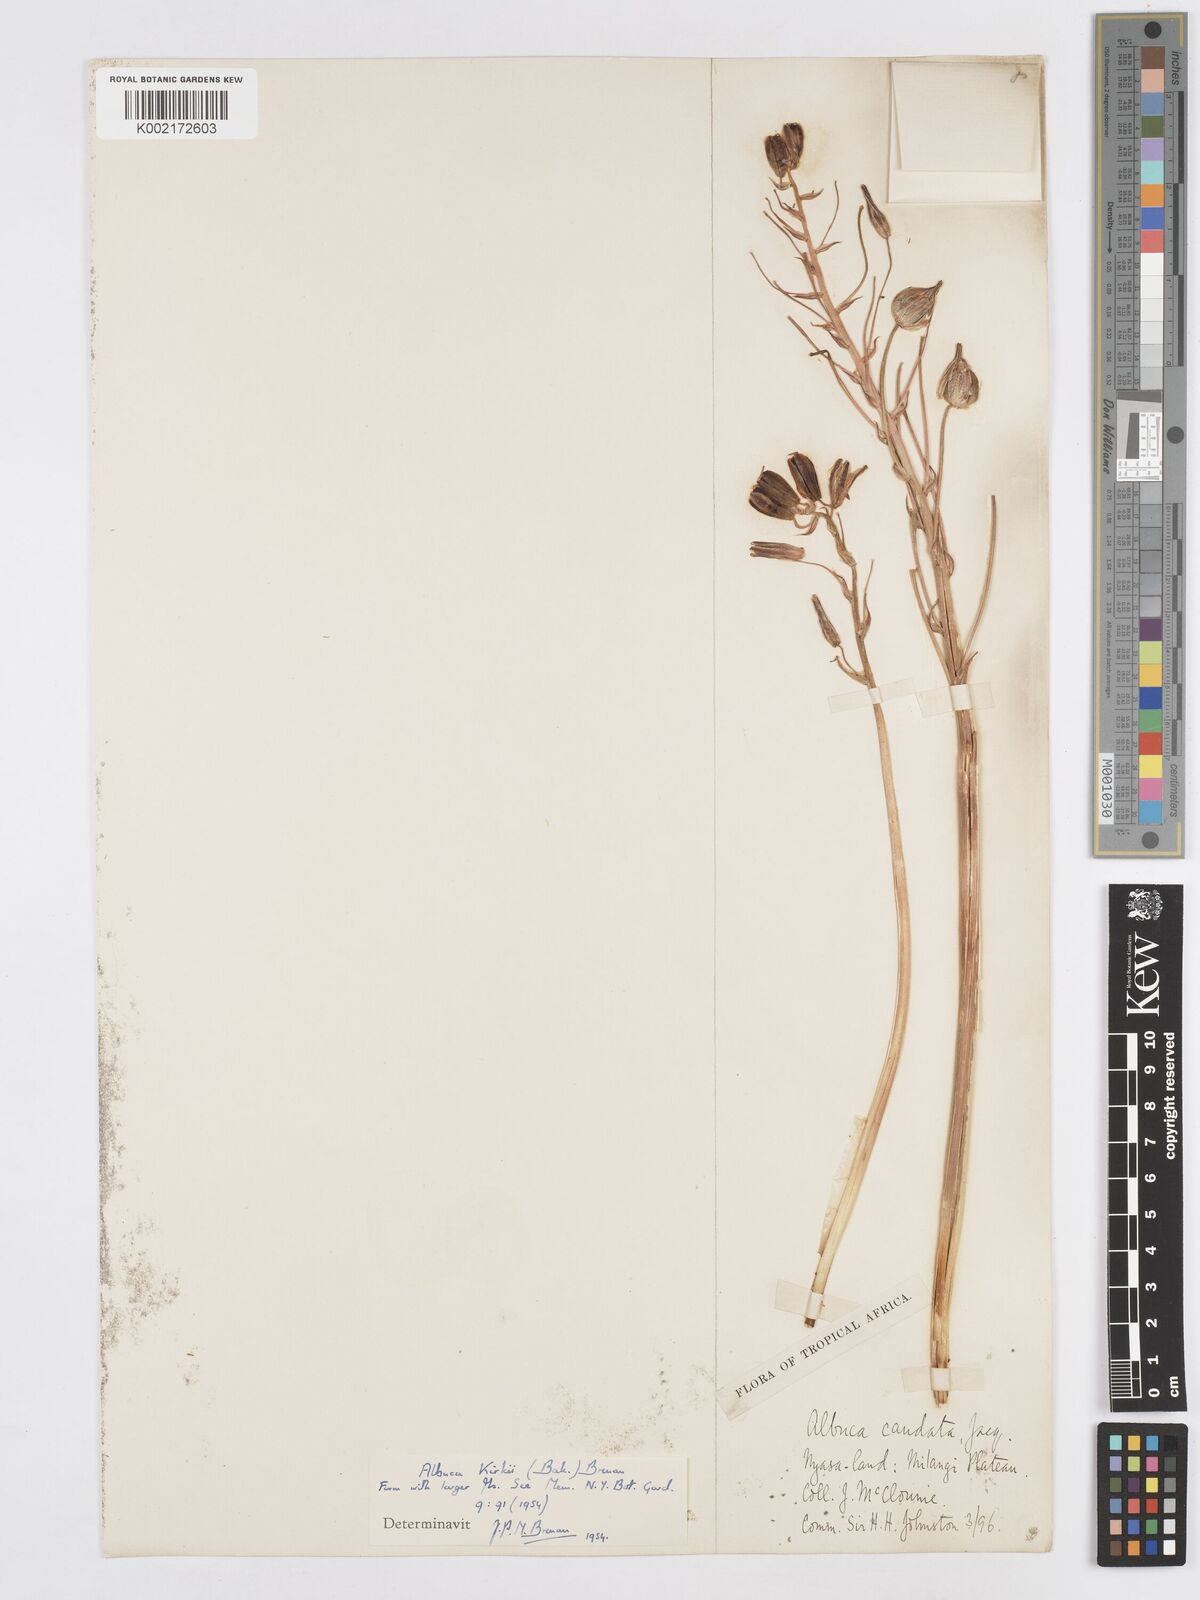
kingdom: Plantae
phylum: Tracheophyta
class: Liliopsida
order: Asparagales
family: Asparagaceae
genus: Albuca
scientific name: Albuca kirkii
